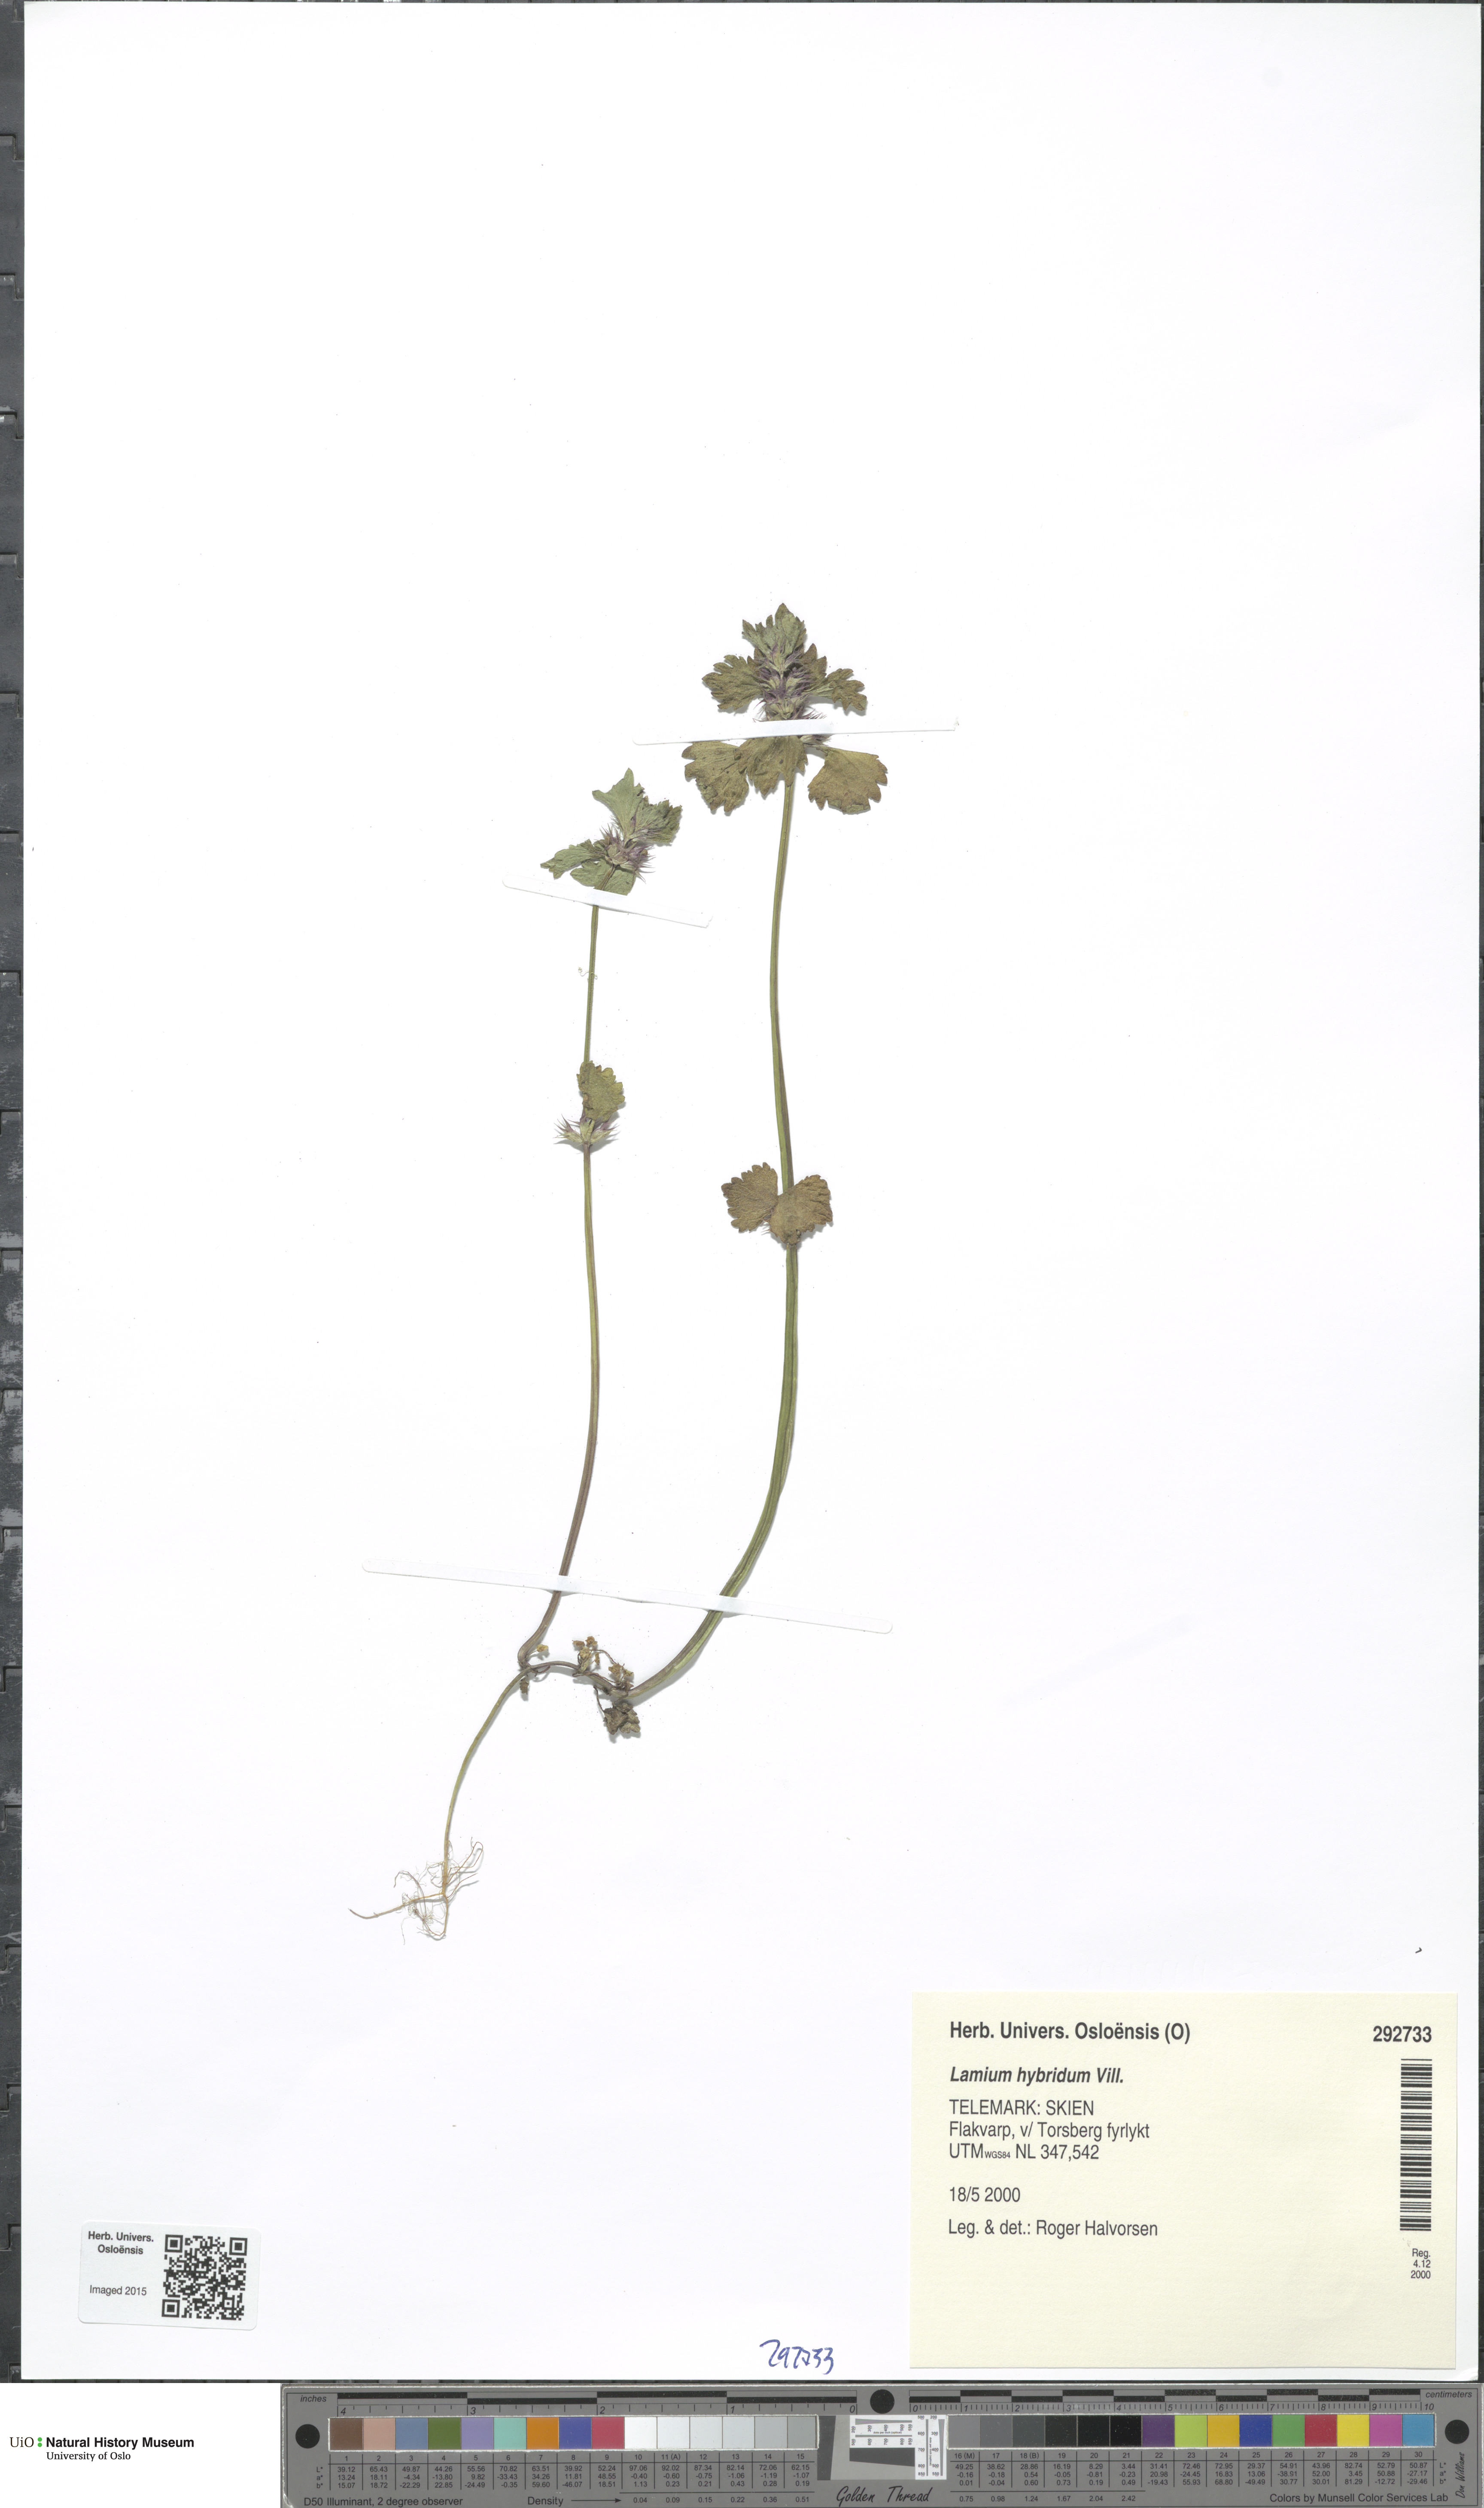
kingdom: Plantae
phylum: Tracheophyta
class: Magnoliopsida
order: Lamiales
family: Lamiaceae
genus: Lamium
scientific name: Lamium hybridum
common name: Cut-leaved dead-nettle
